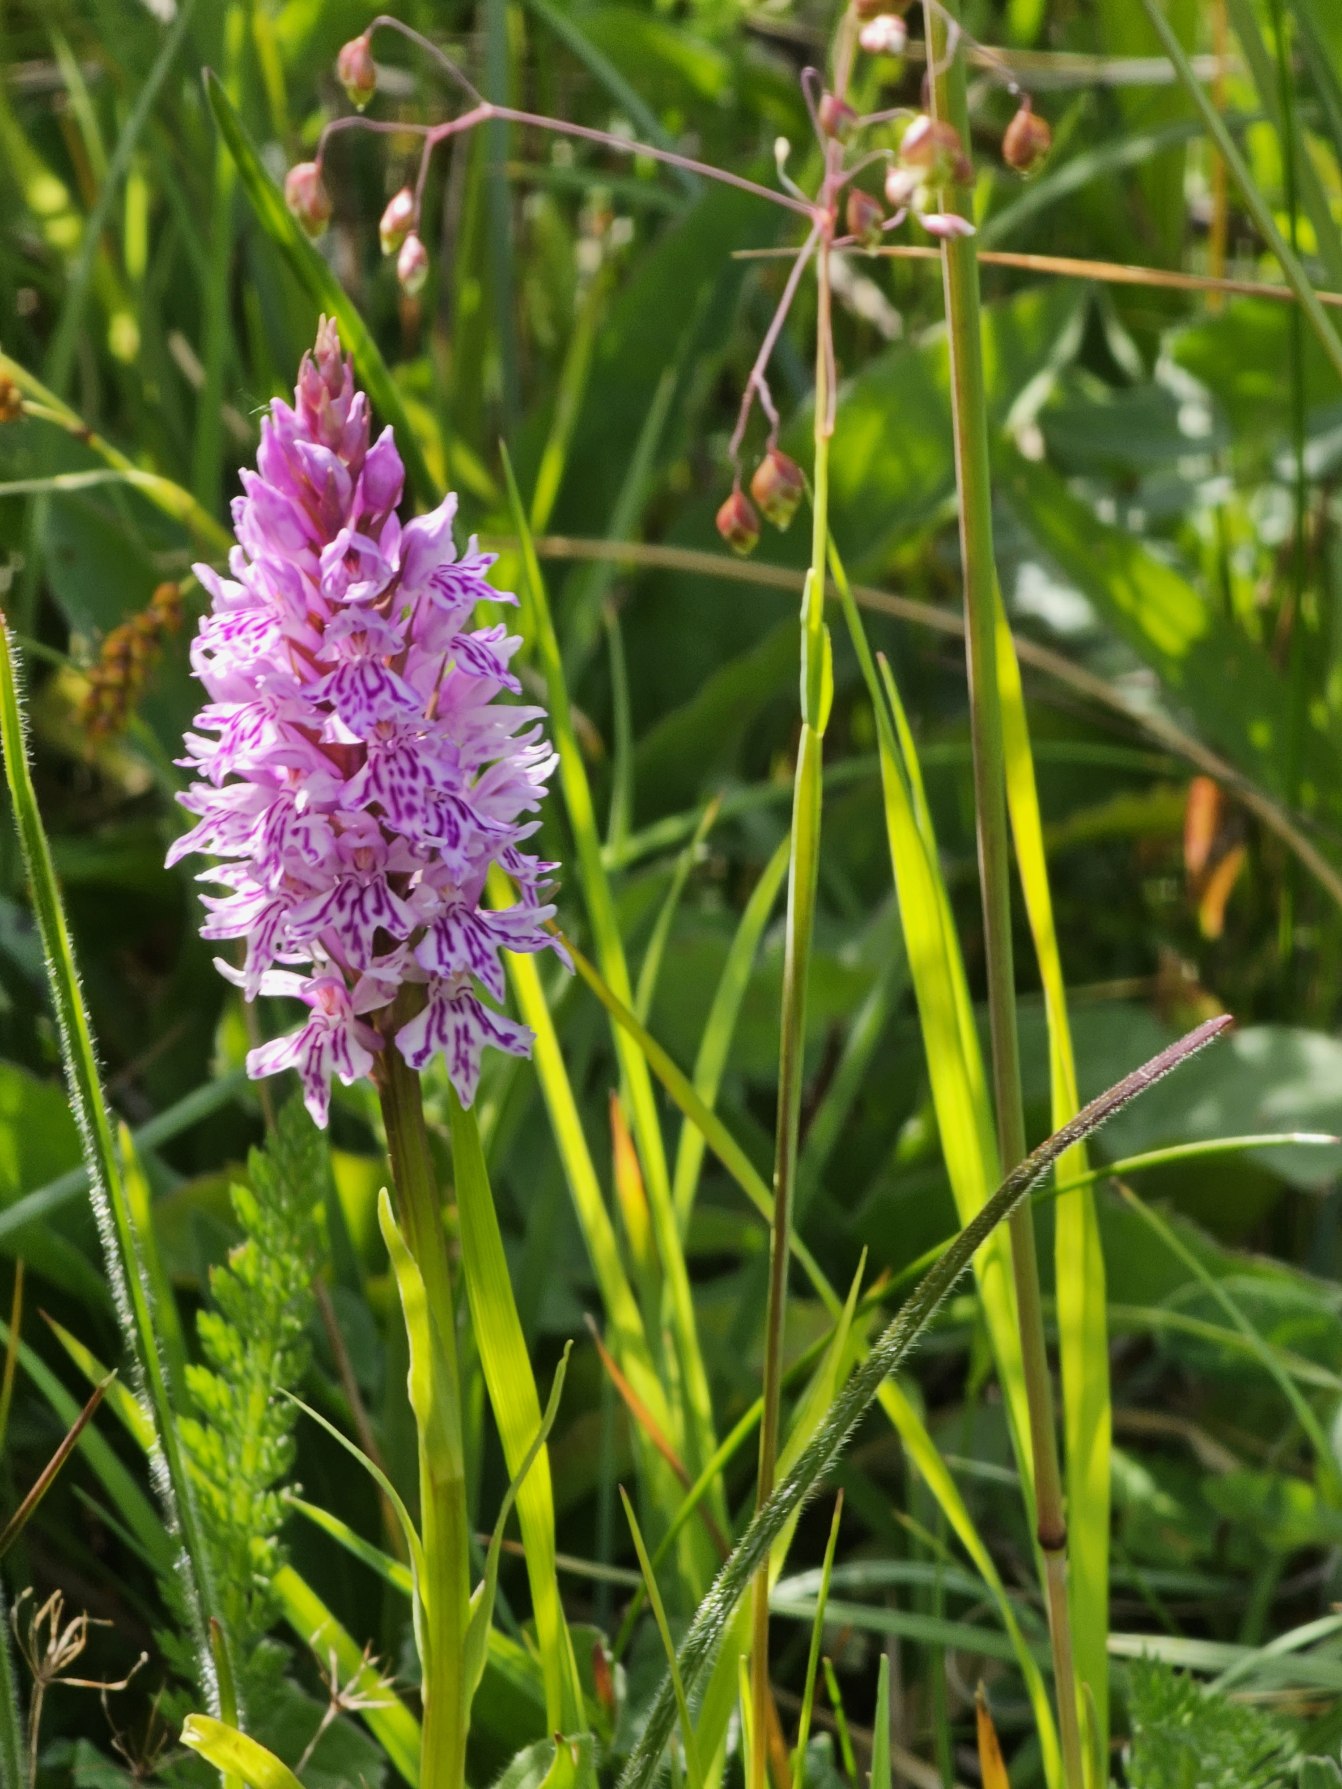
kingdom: Plantae
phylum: Tracheophyta
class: Liliopsida
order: Asparagales
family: Orchidaceae
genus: Dactylorhiza
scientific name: Dactylorhiza maculata
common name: Skov-gøgeurt
